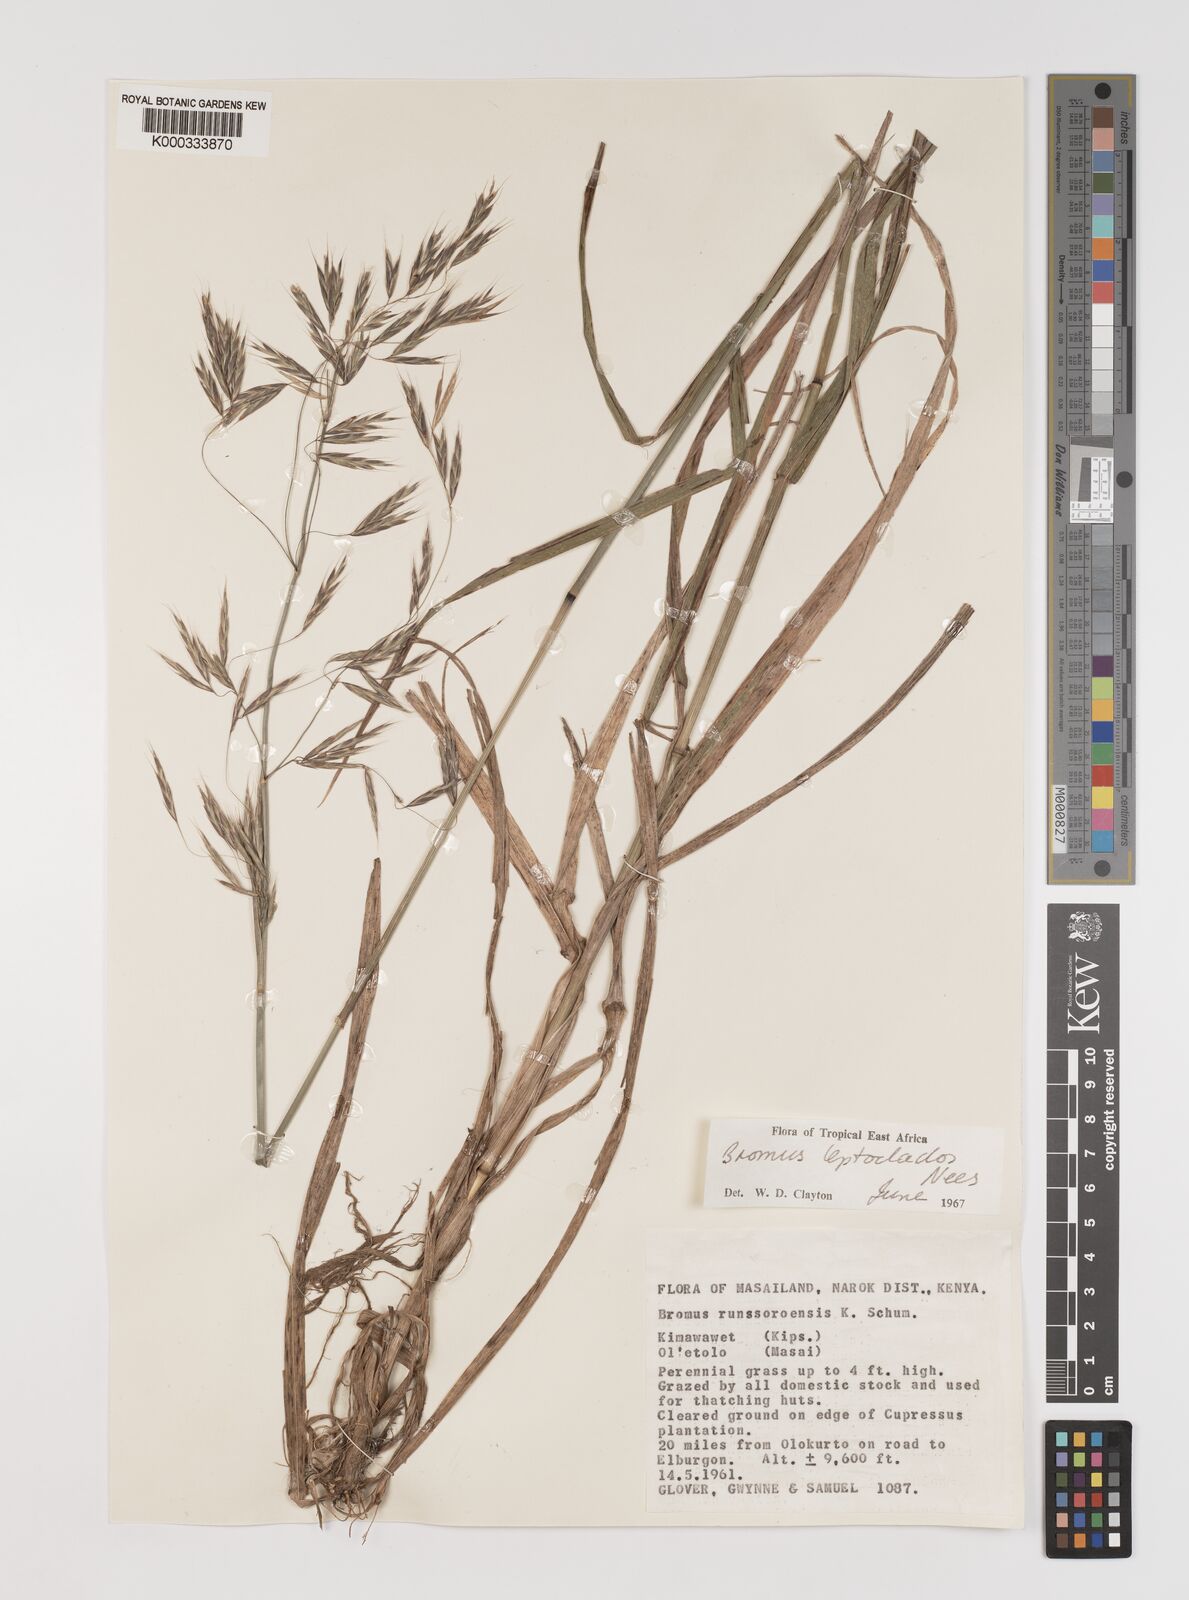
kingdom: Plantae
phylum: Tracheophyta
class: Liliopsida
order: Poales
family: Poaceae
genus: Bromus
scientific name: Bromus leptoclados
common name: Mountain bromegrass
